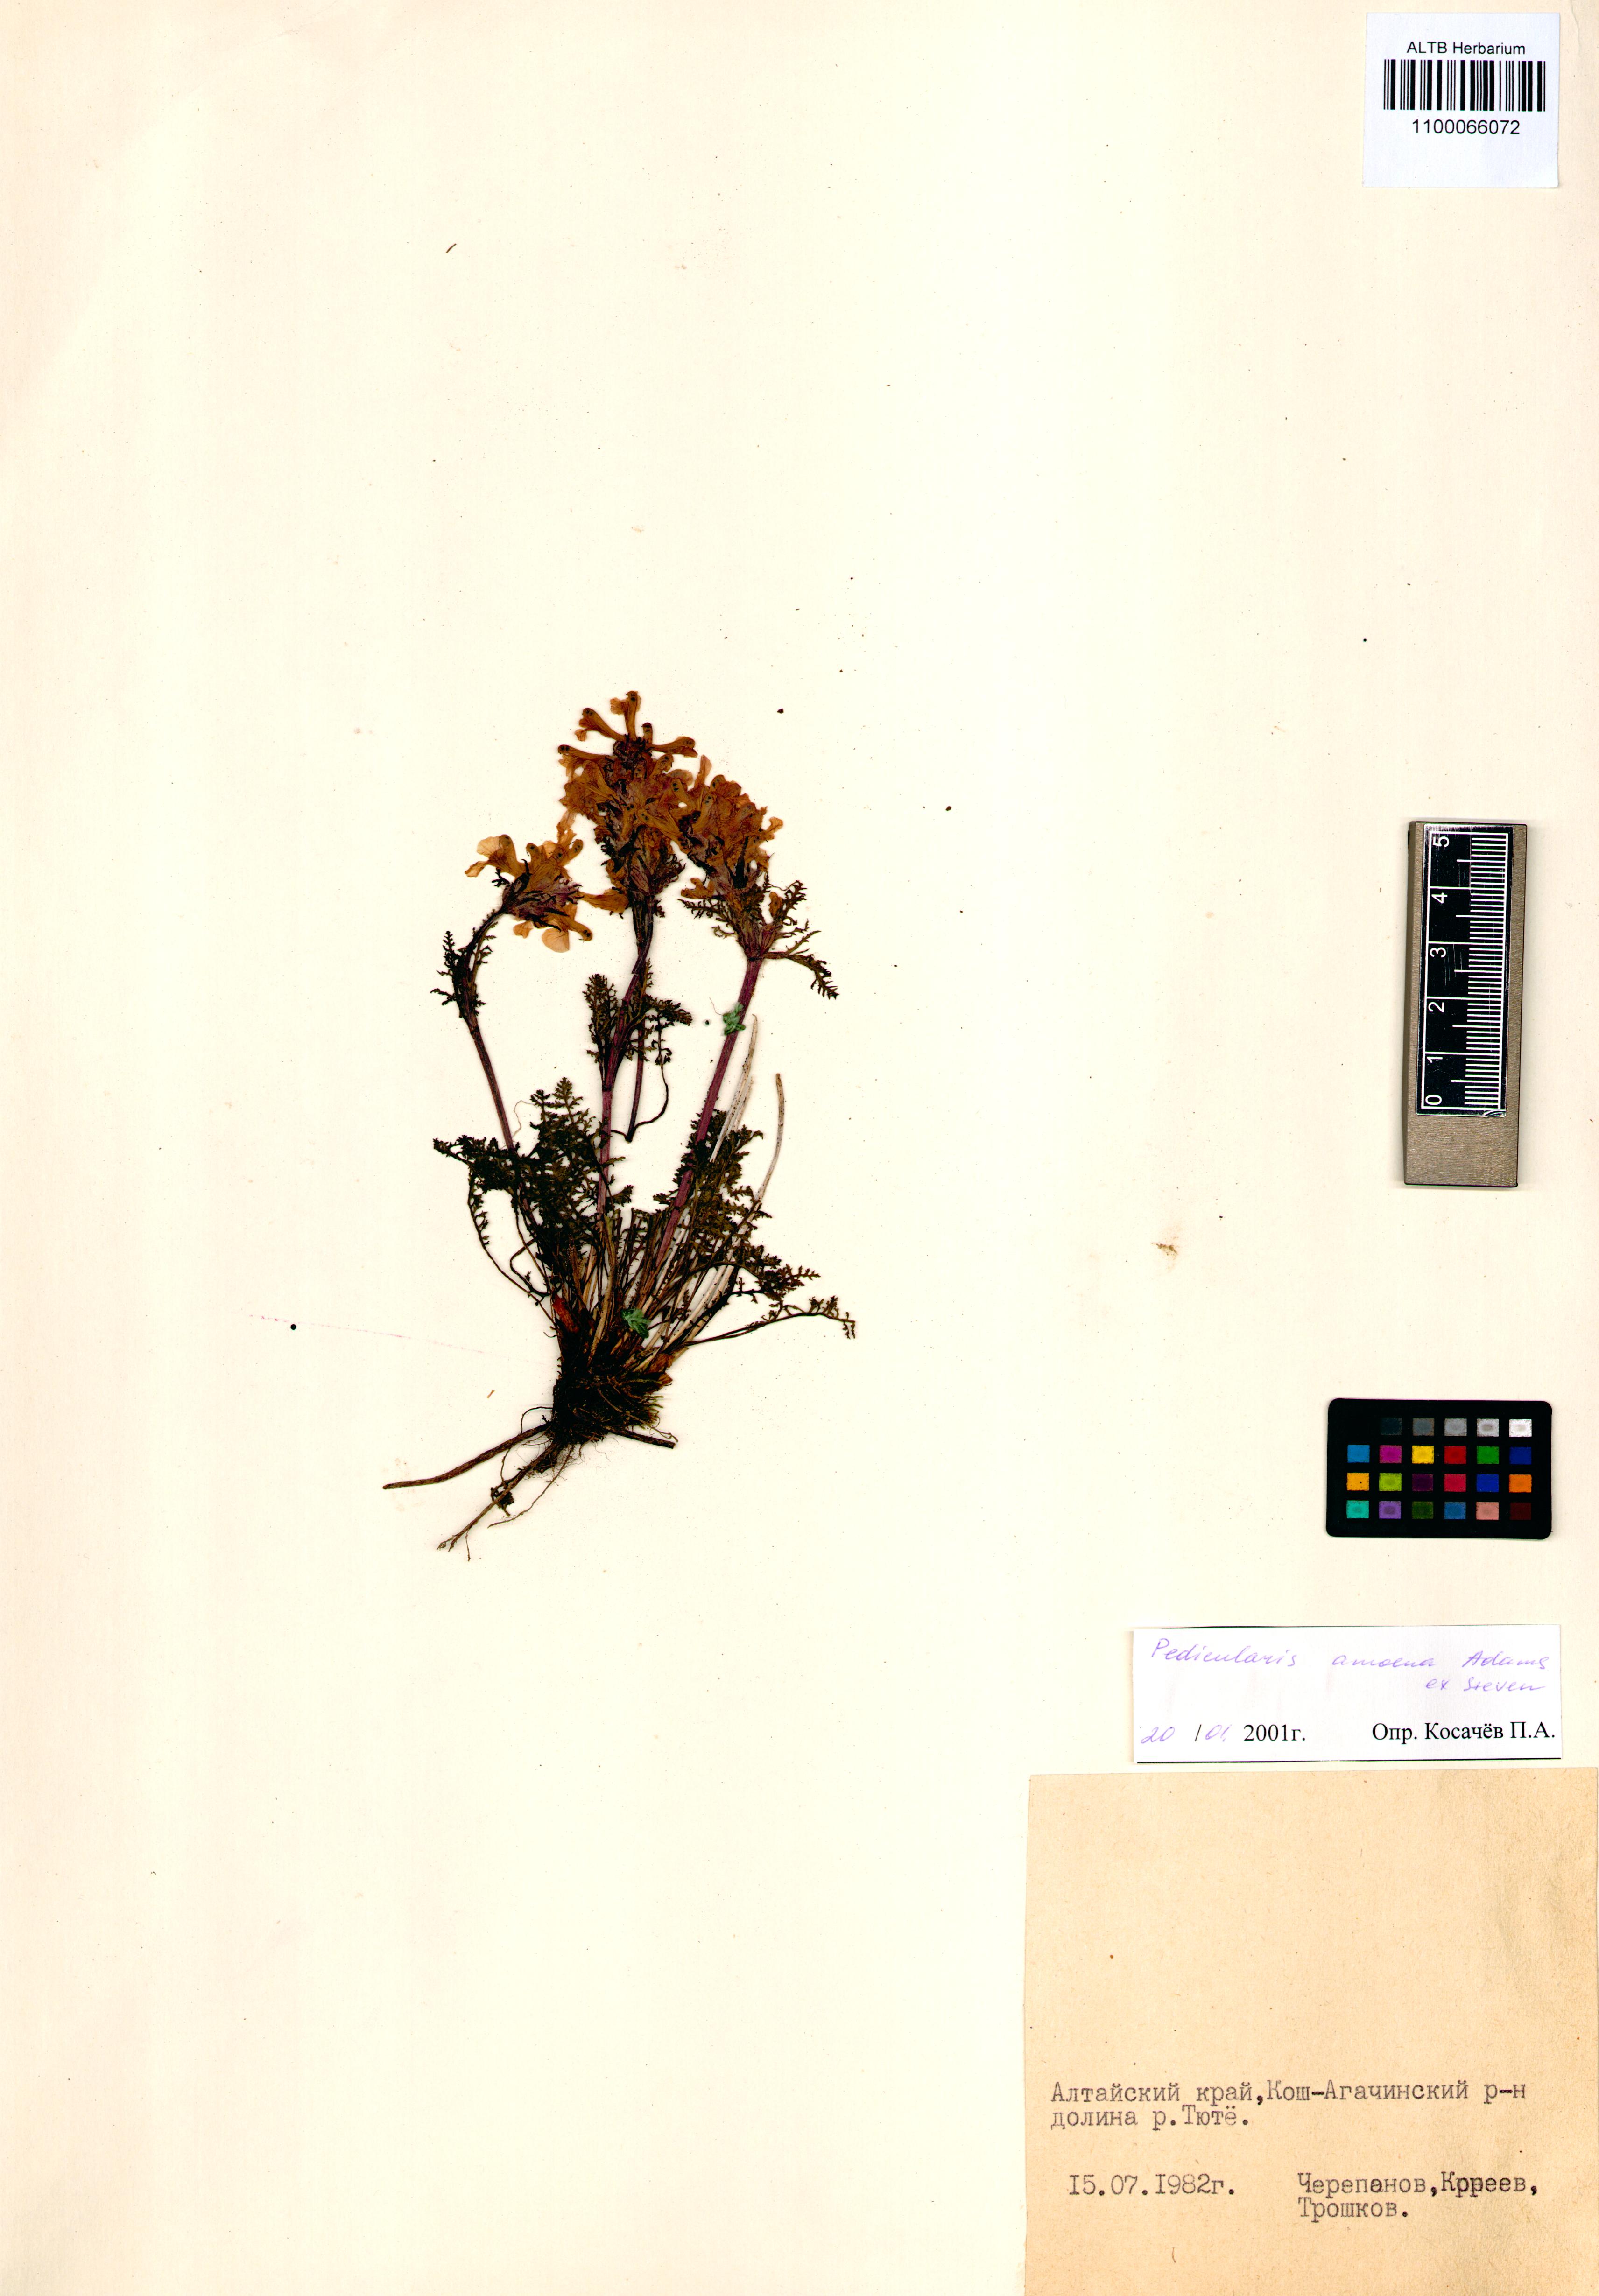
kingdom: Plantae
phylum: Tracheophyta
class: Magnoliopsida
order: Lamiales
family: Orobanchaceae
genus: Pedicularis
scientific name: Pedicularis amoena
